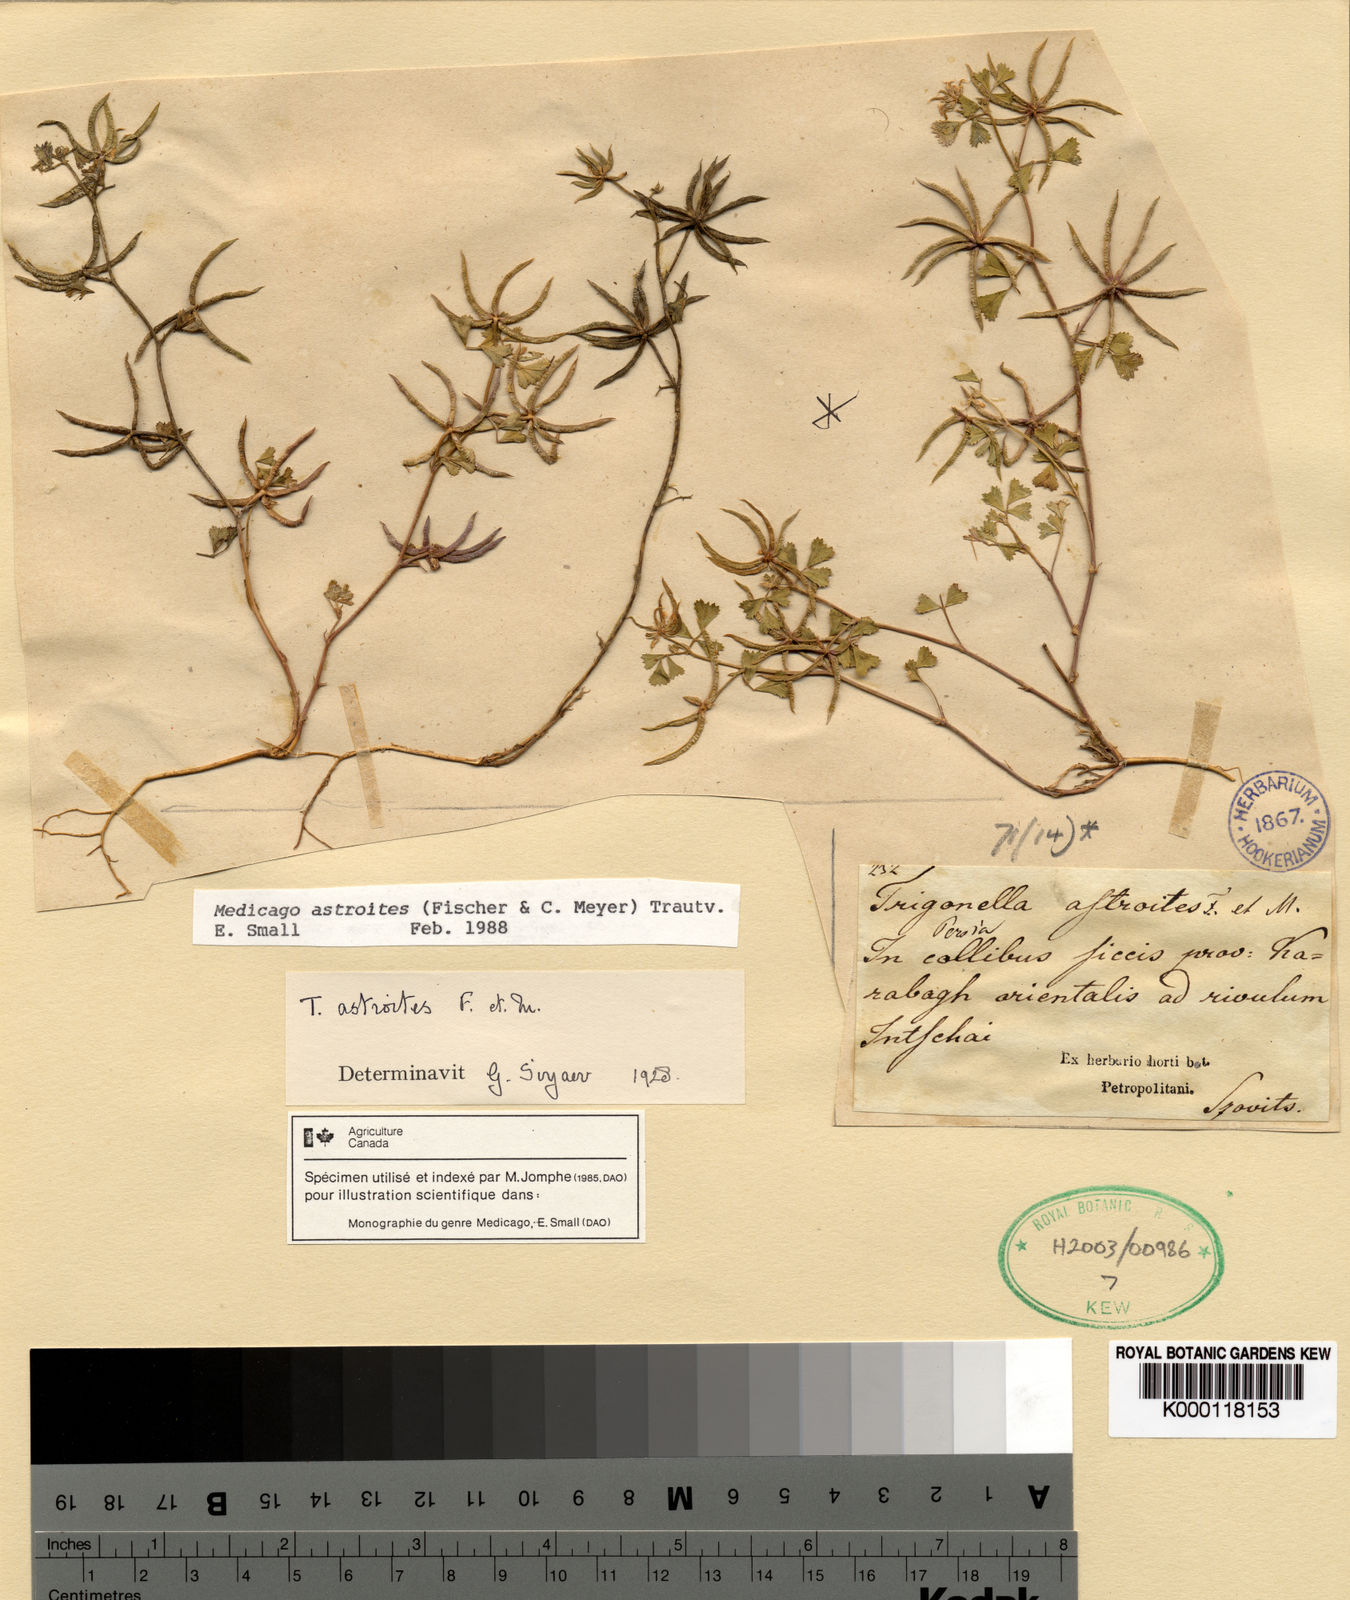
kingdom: Plantae
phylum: Tracheophyta
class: Magnoliopsida
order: Fabales
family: Fabaceae
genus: Medicago
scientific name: Medicago astroites
